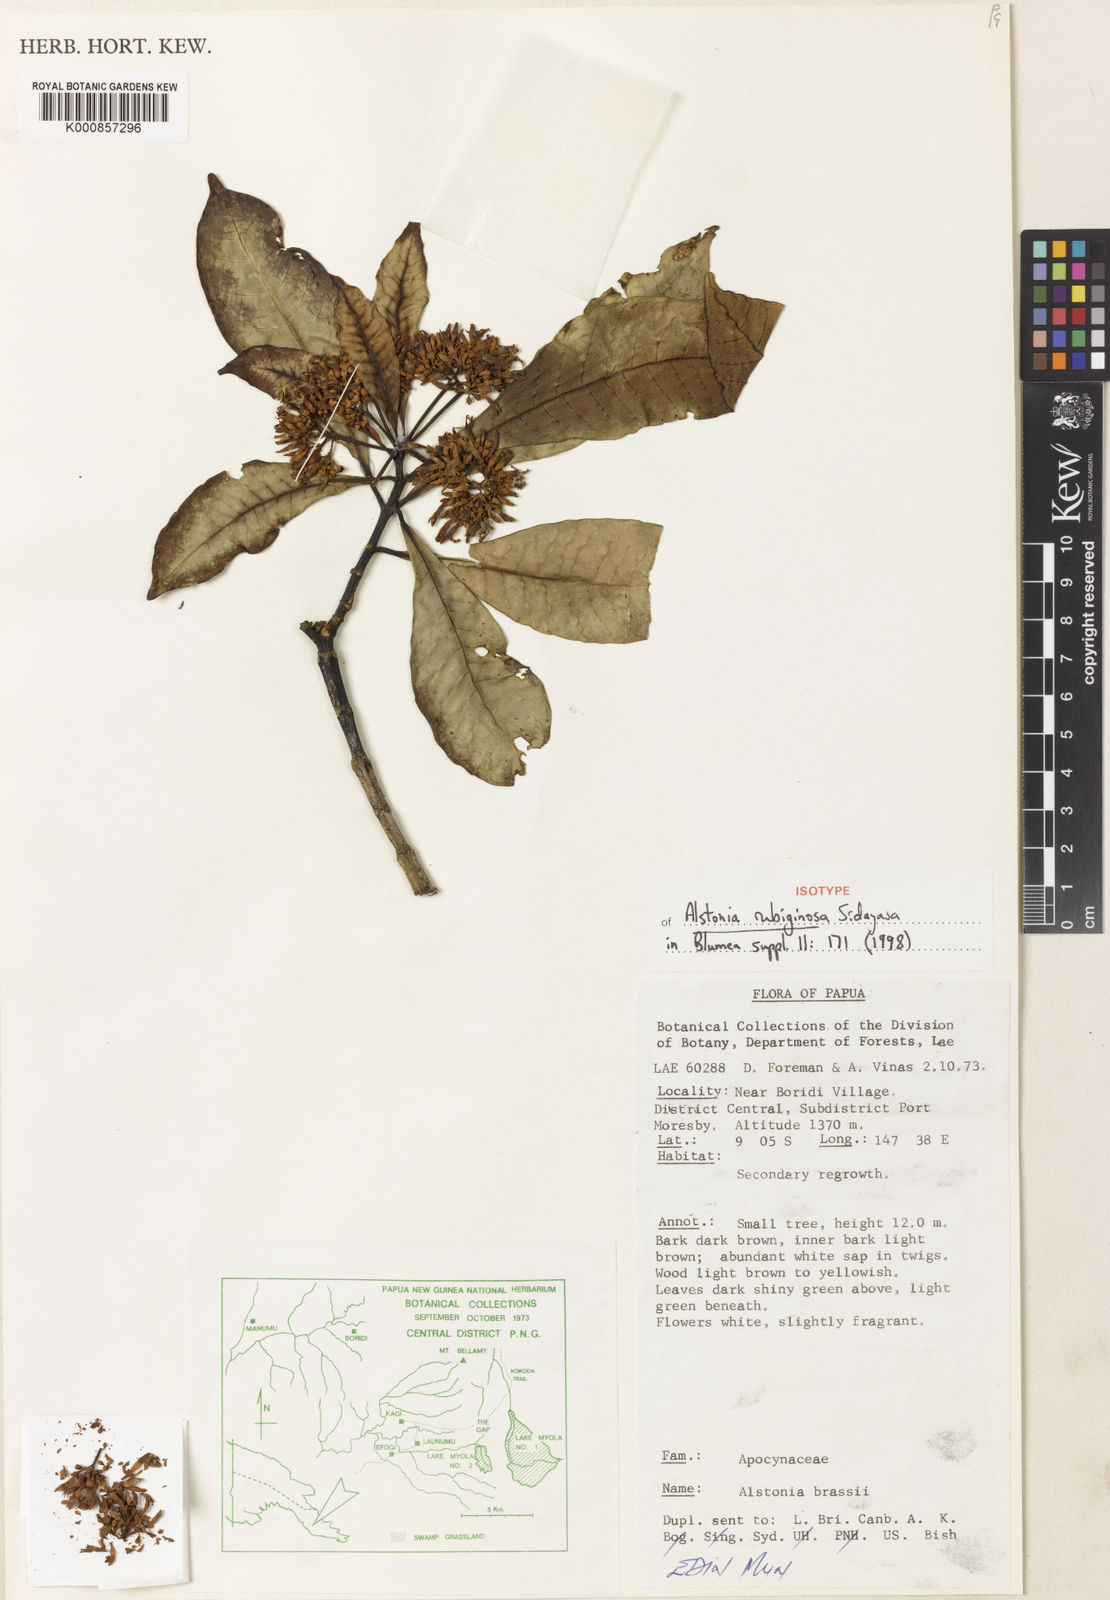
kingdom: Plantae
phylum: Tracheophyta
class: Magnoliopsida
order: Gentianales
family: Apocynaceae
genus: Alstonia
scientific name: Alstonia rubiginosa
